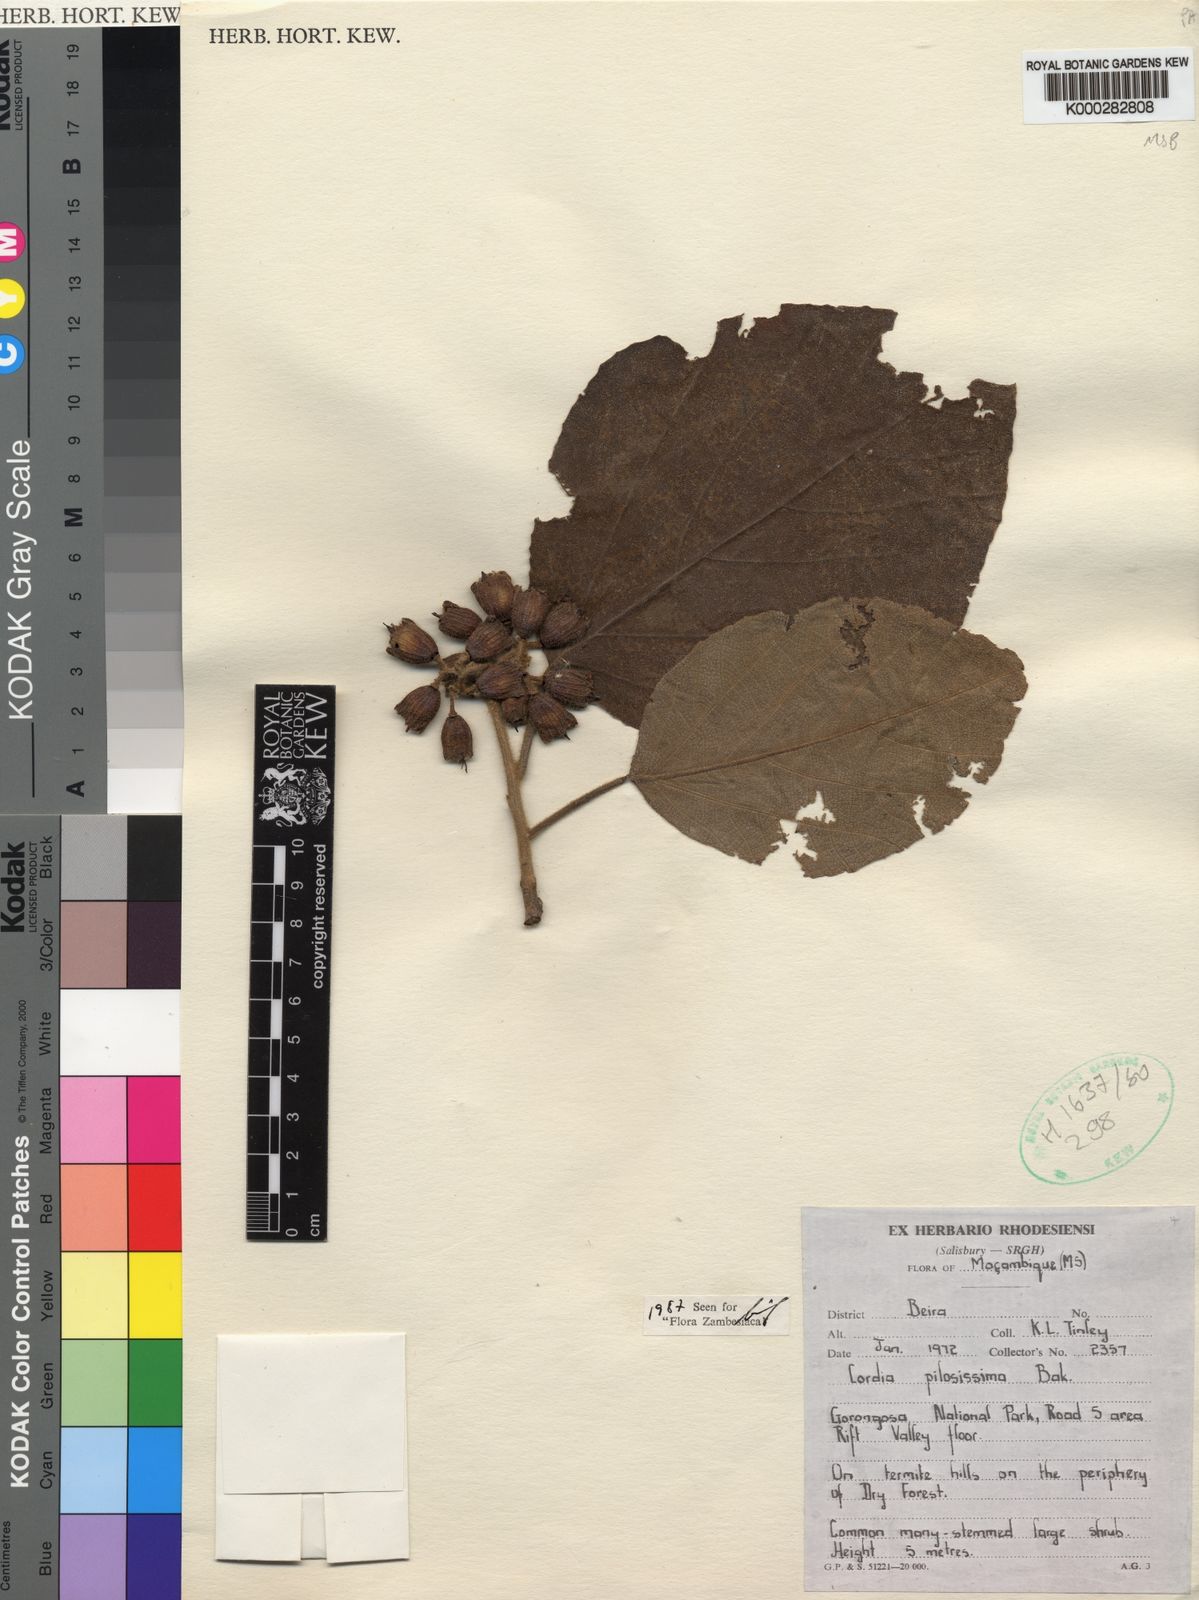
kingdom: Plantae
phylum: Tracheophyta
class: Magnoliopsida
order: Boraginales
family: Cordiaceae
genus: Cordia
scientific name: Cordia pilosissima
